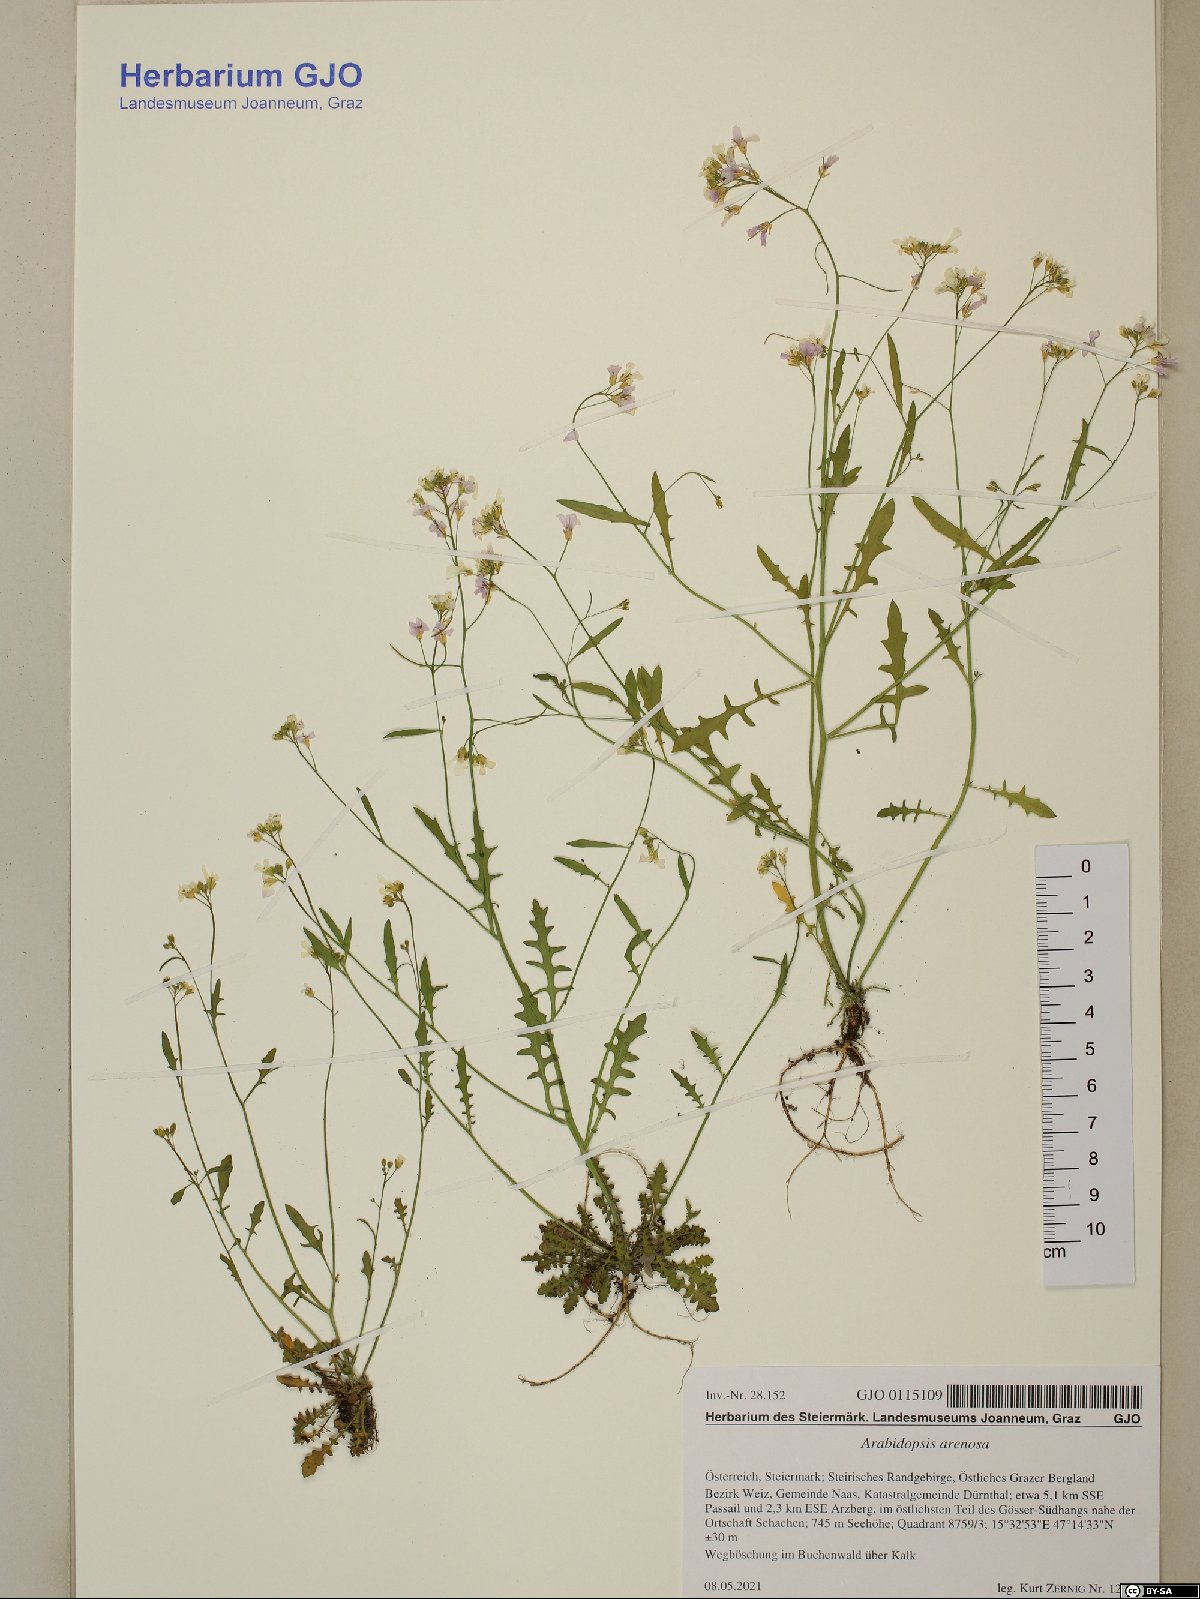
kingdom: Plantae
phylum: Tracheophyta
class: Magnoliopsida
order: Brassicales
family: Brassicaceae
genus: Arabidopsis
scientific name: Arabidopsis arenosa
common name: Sand rock-cress
